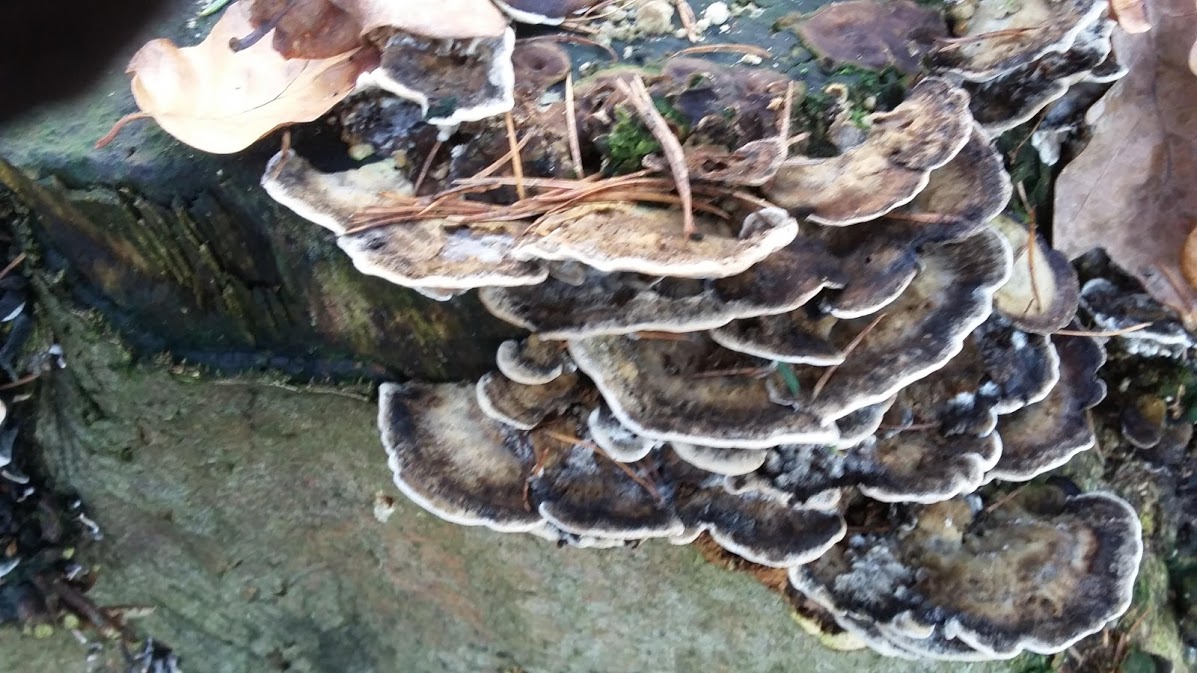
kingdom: Fungi
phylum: Basidiomycota
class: Agaricomycetes
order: Polyporales
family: Phanerochaetaceae
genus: Bjerkandera
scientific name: Bjerkandera adusta
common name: sveden sodporesvamp
